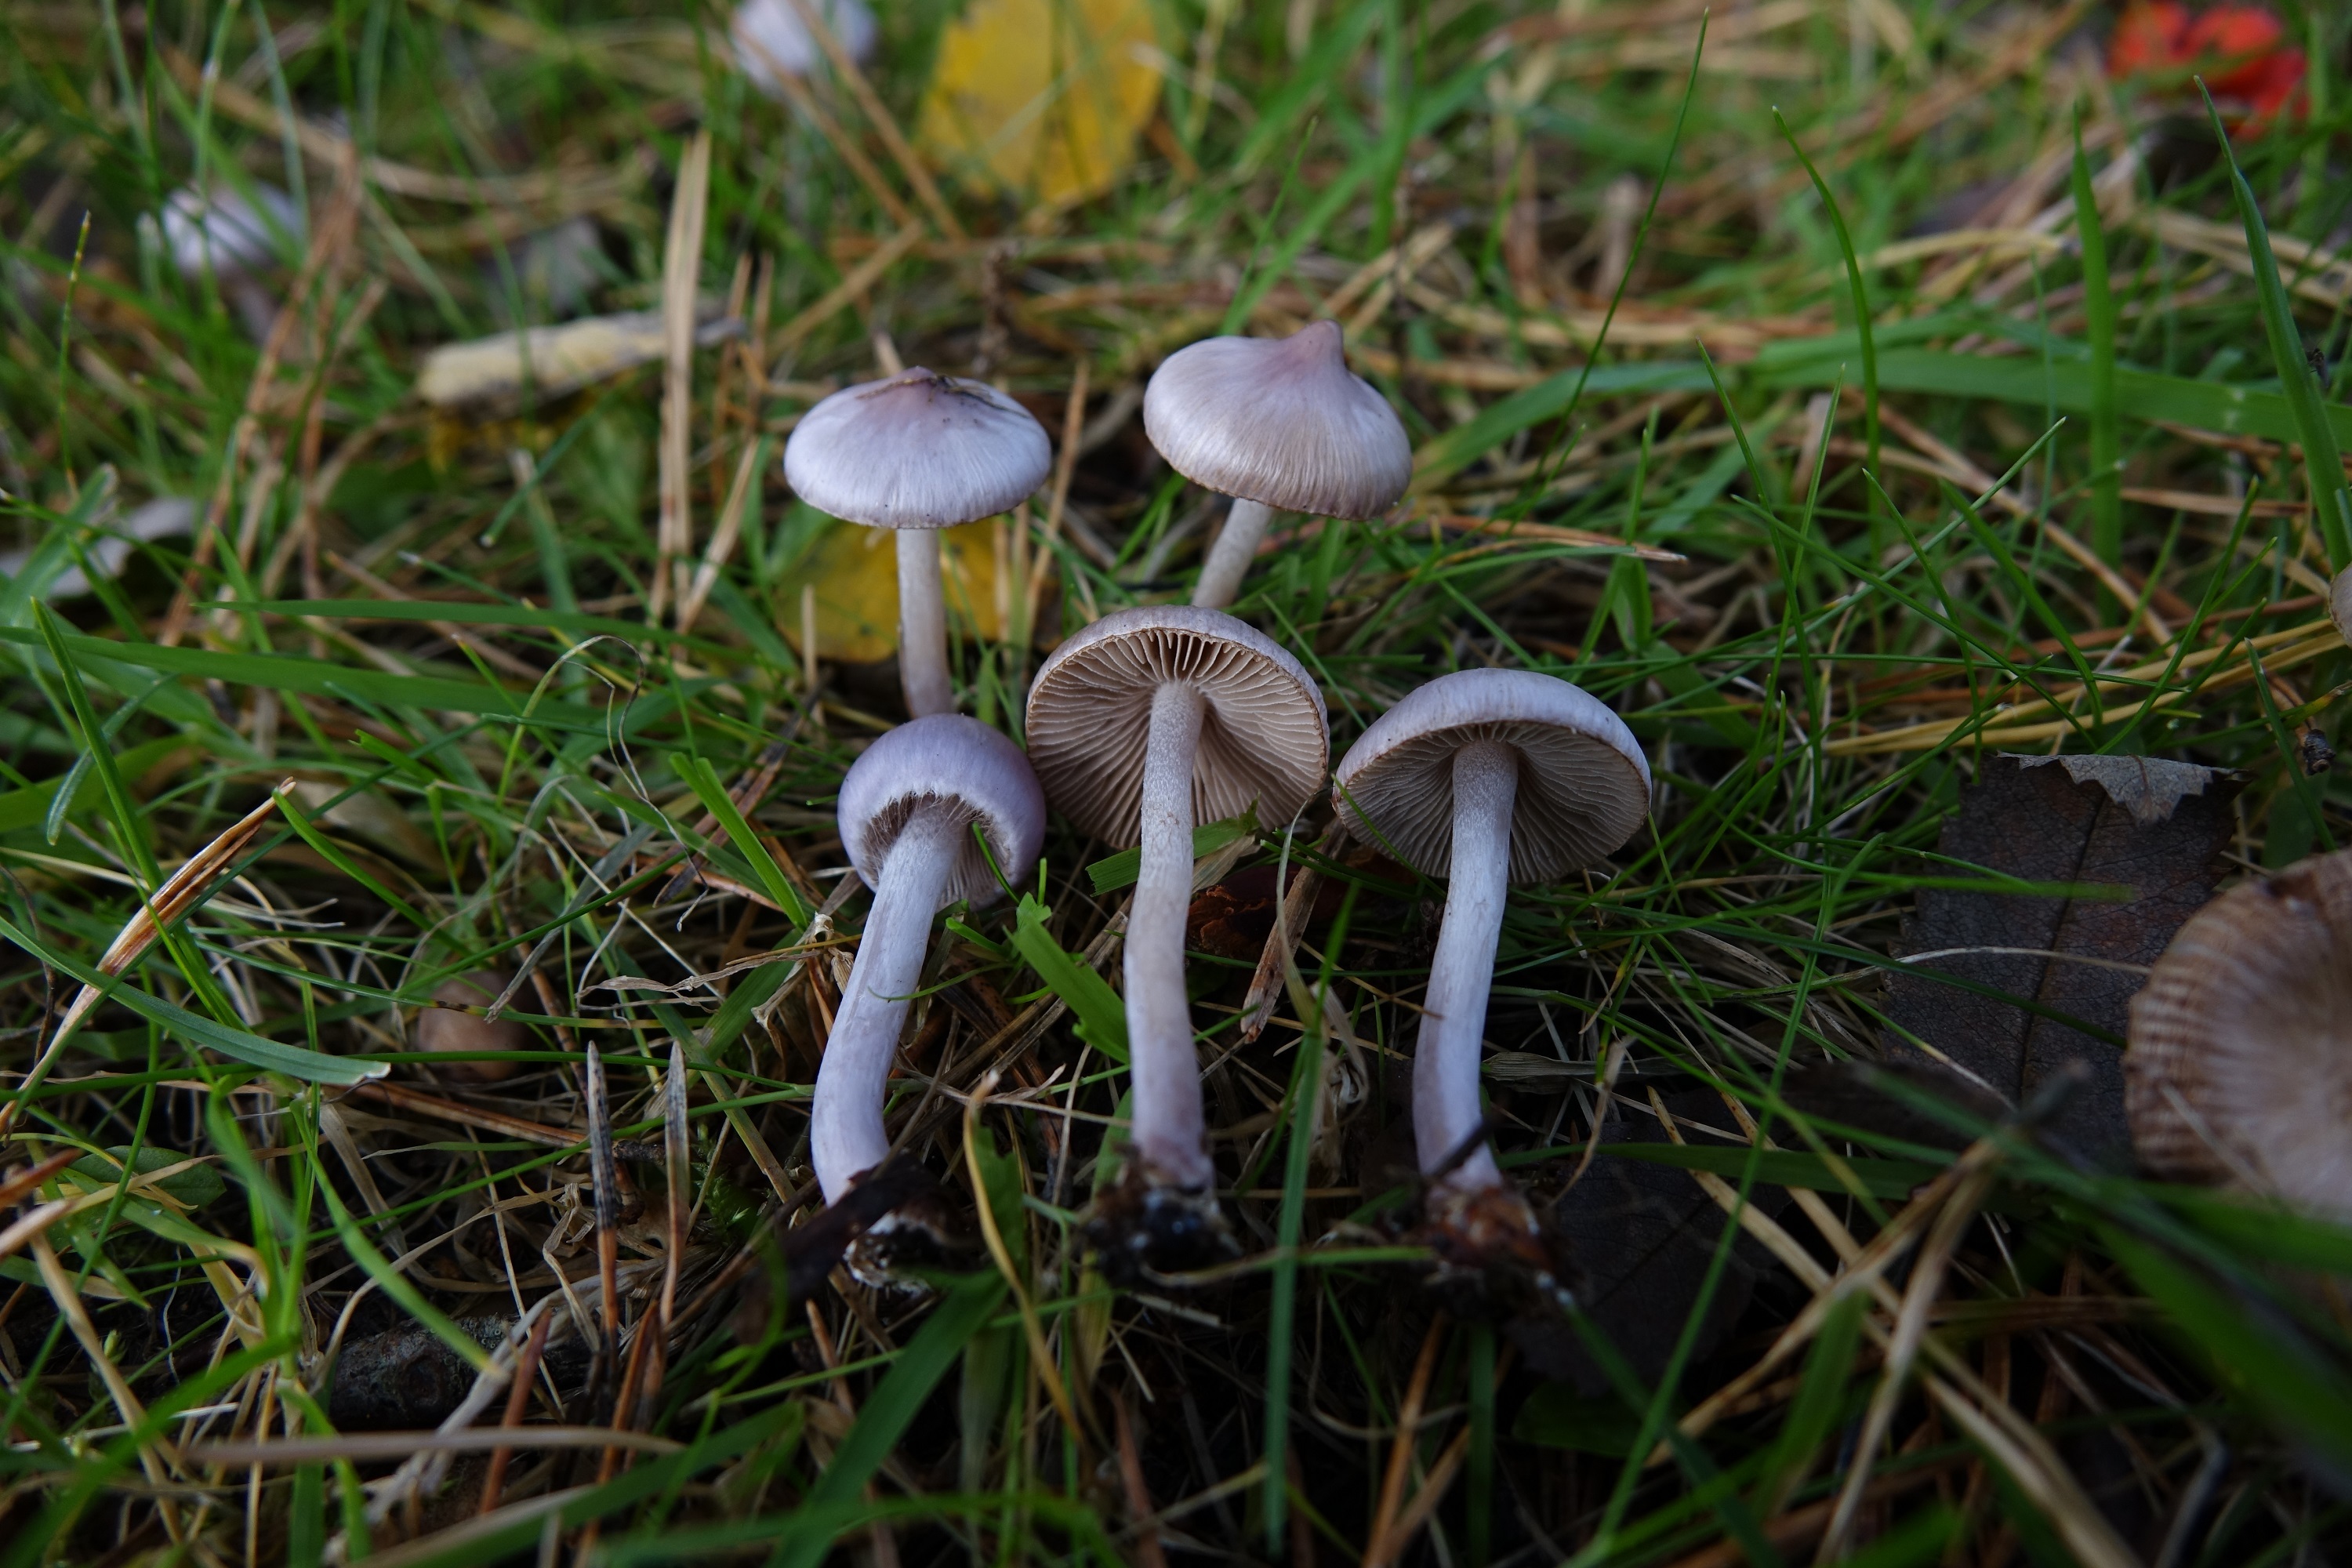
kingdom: Fungi
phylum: Basidiomycota
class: Agaricomycetes
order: Agaricales
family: Inocybaceae
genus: Inocybe
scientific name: Inocybe geophylla
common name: White fibrecap
